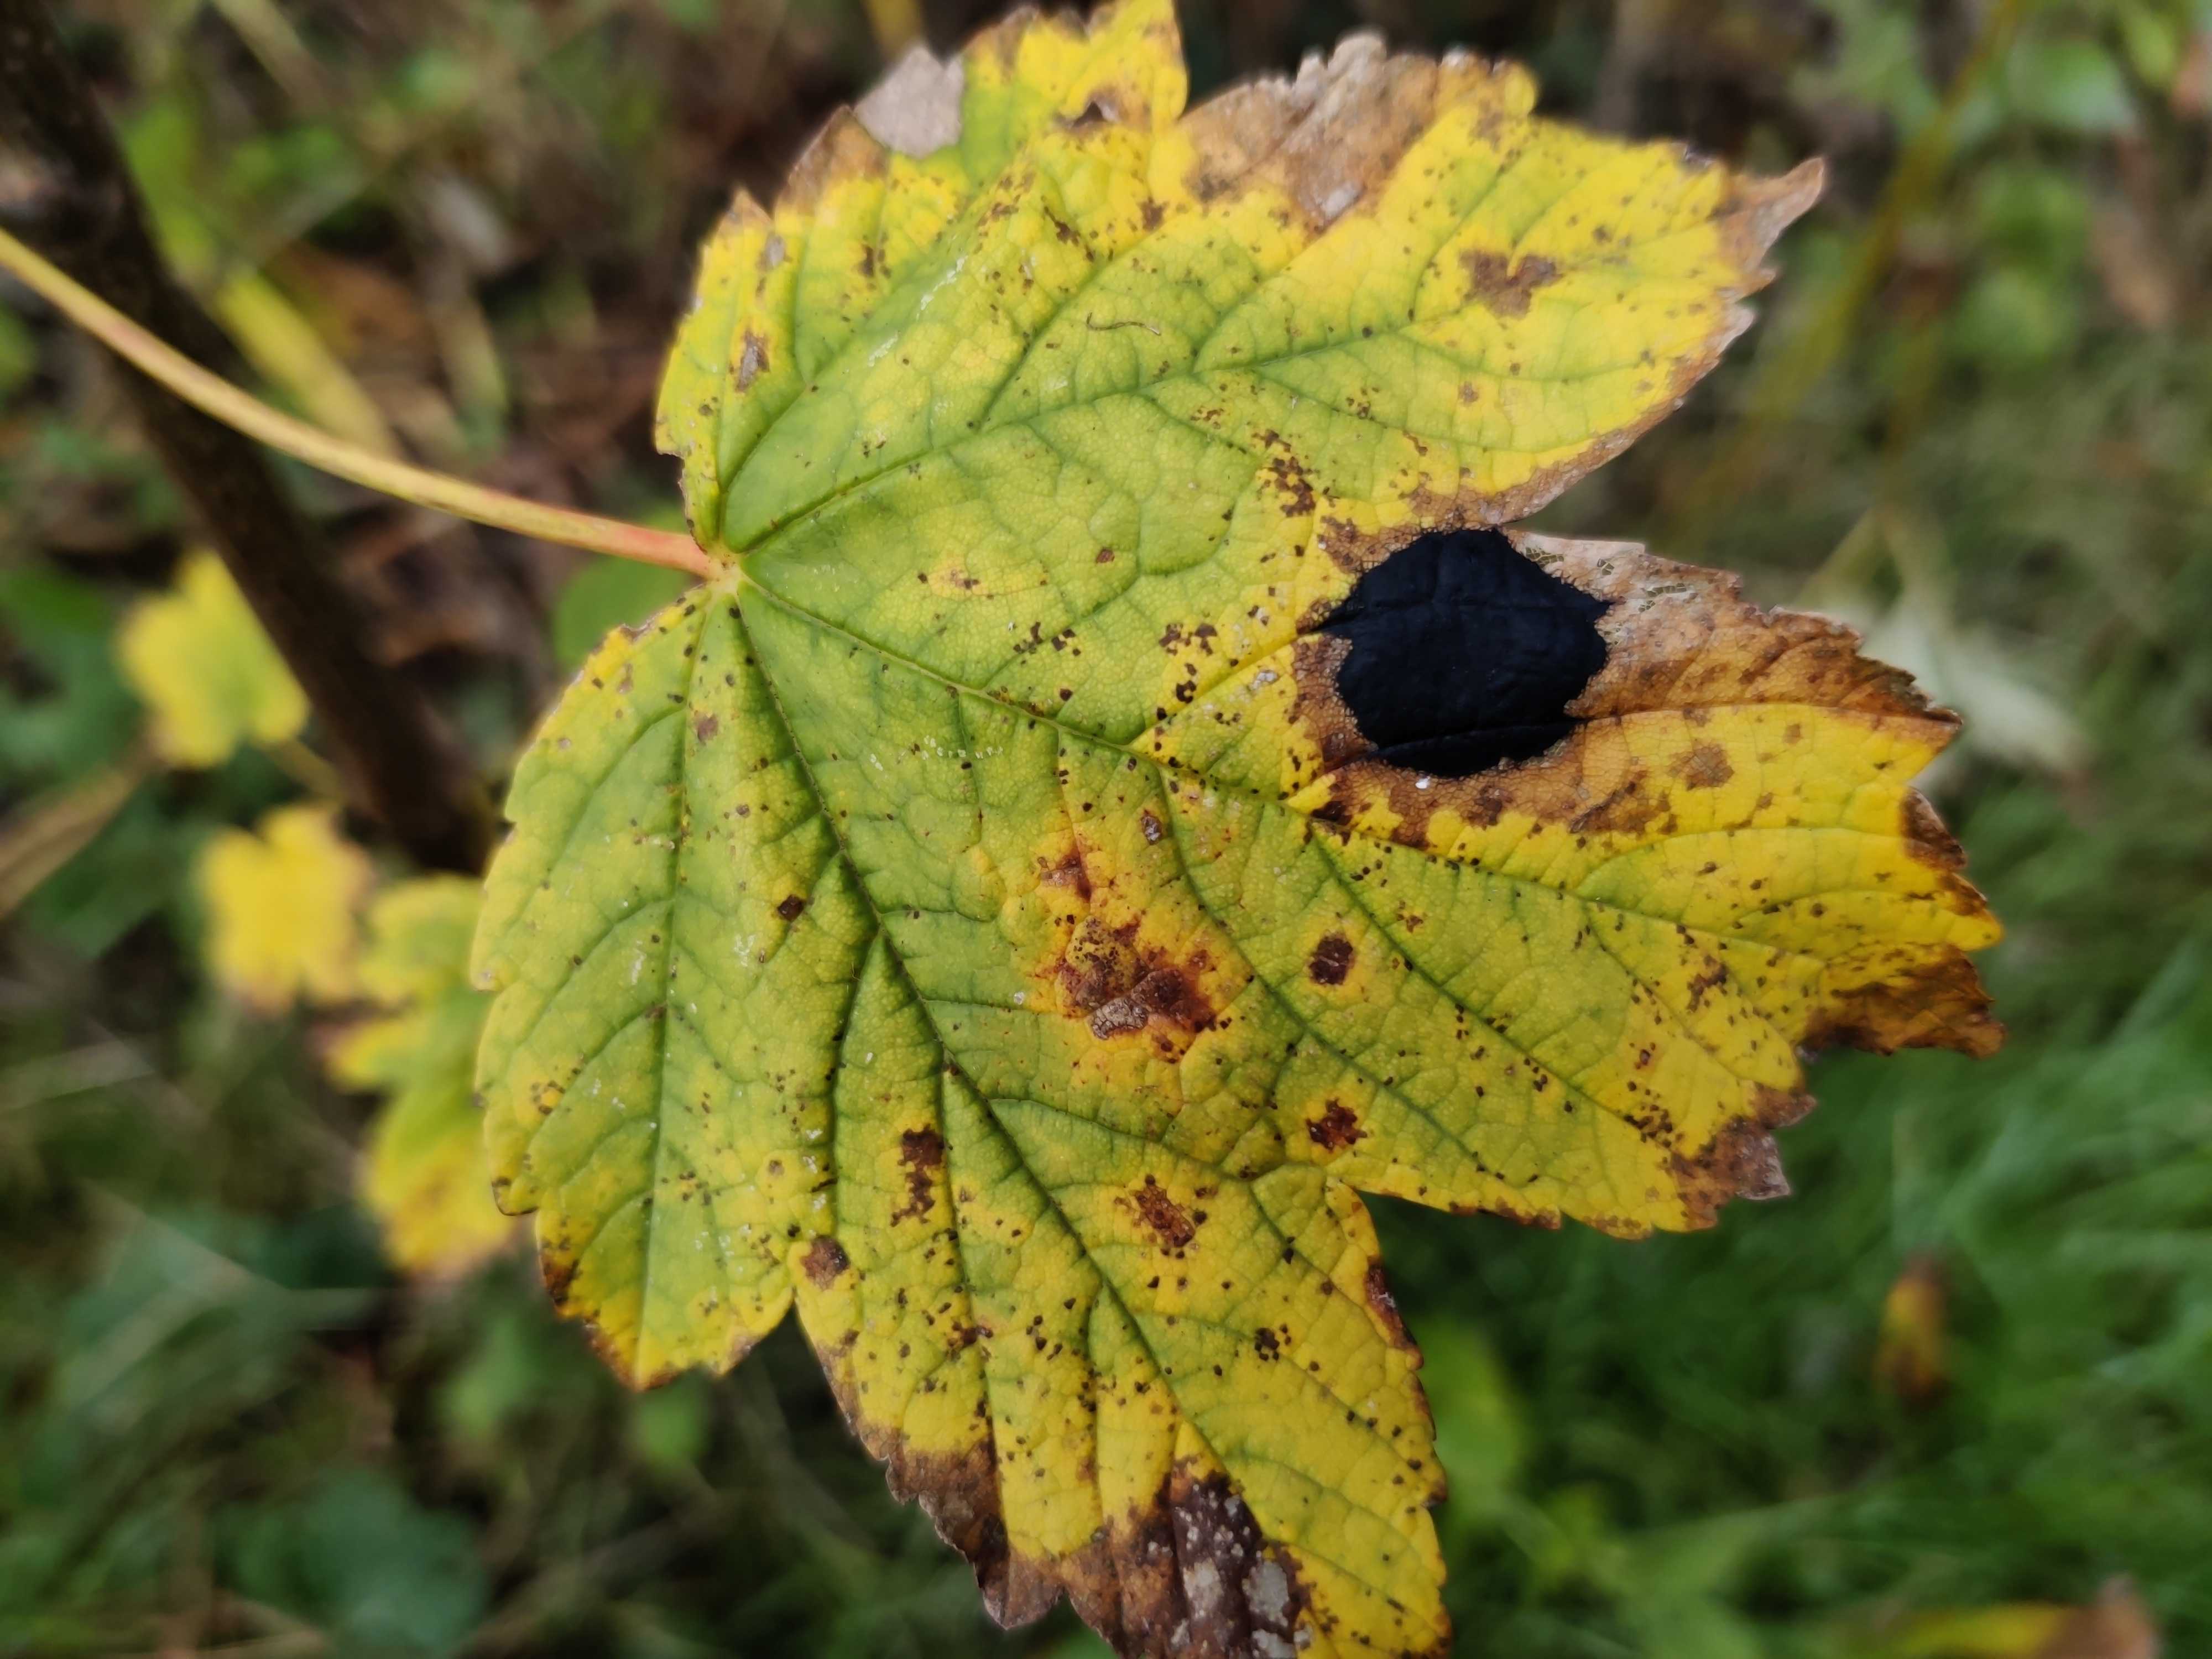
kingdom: Fungi
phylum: Ascomycota
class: Leotiomycetes
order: Rhytismatales
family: Rhytismataceae
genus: Rhytisma
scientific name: Rhytisma acerinum
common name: ahorn-rynkeplet
